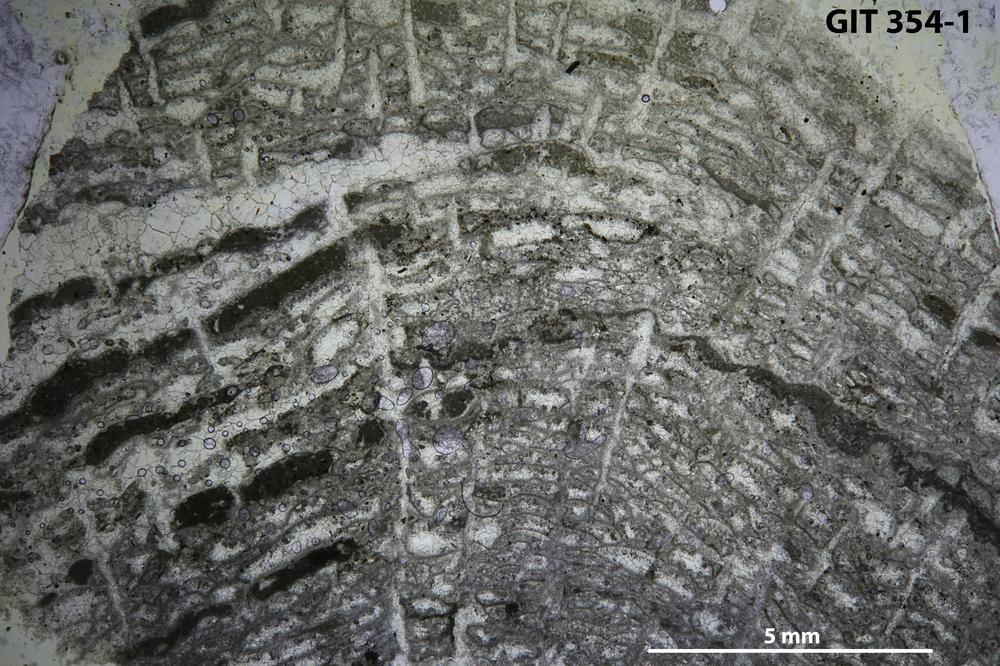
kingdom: Animalia
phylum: Porifera
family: Stromatoceriidae
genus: Cystistroma
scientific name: Cystistroma Stromatocerium canadense
